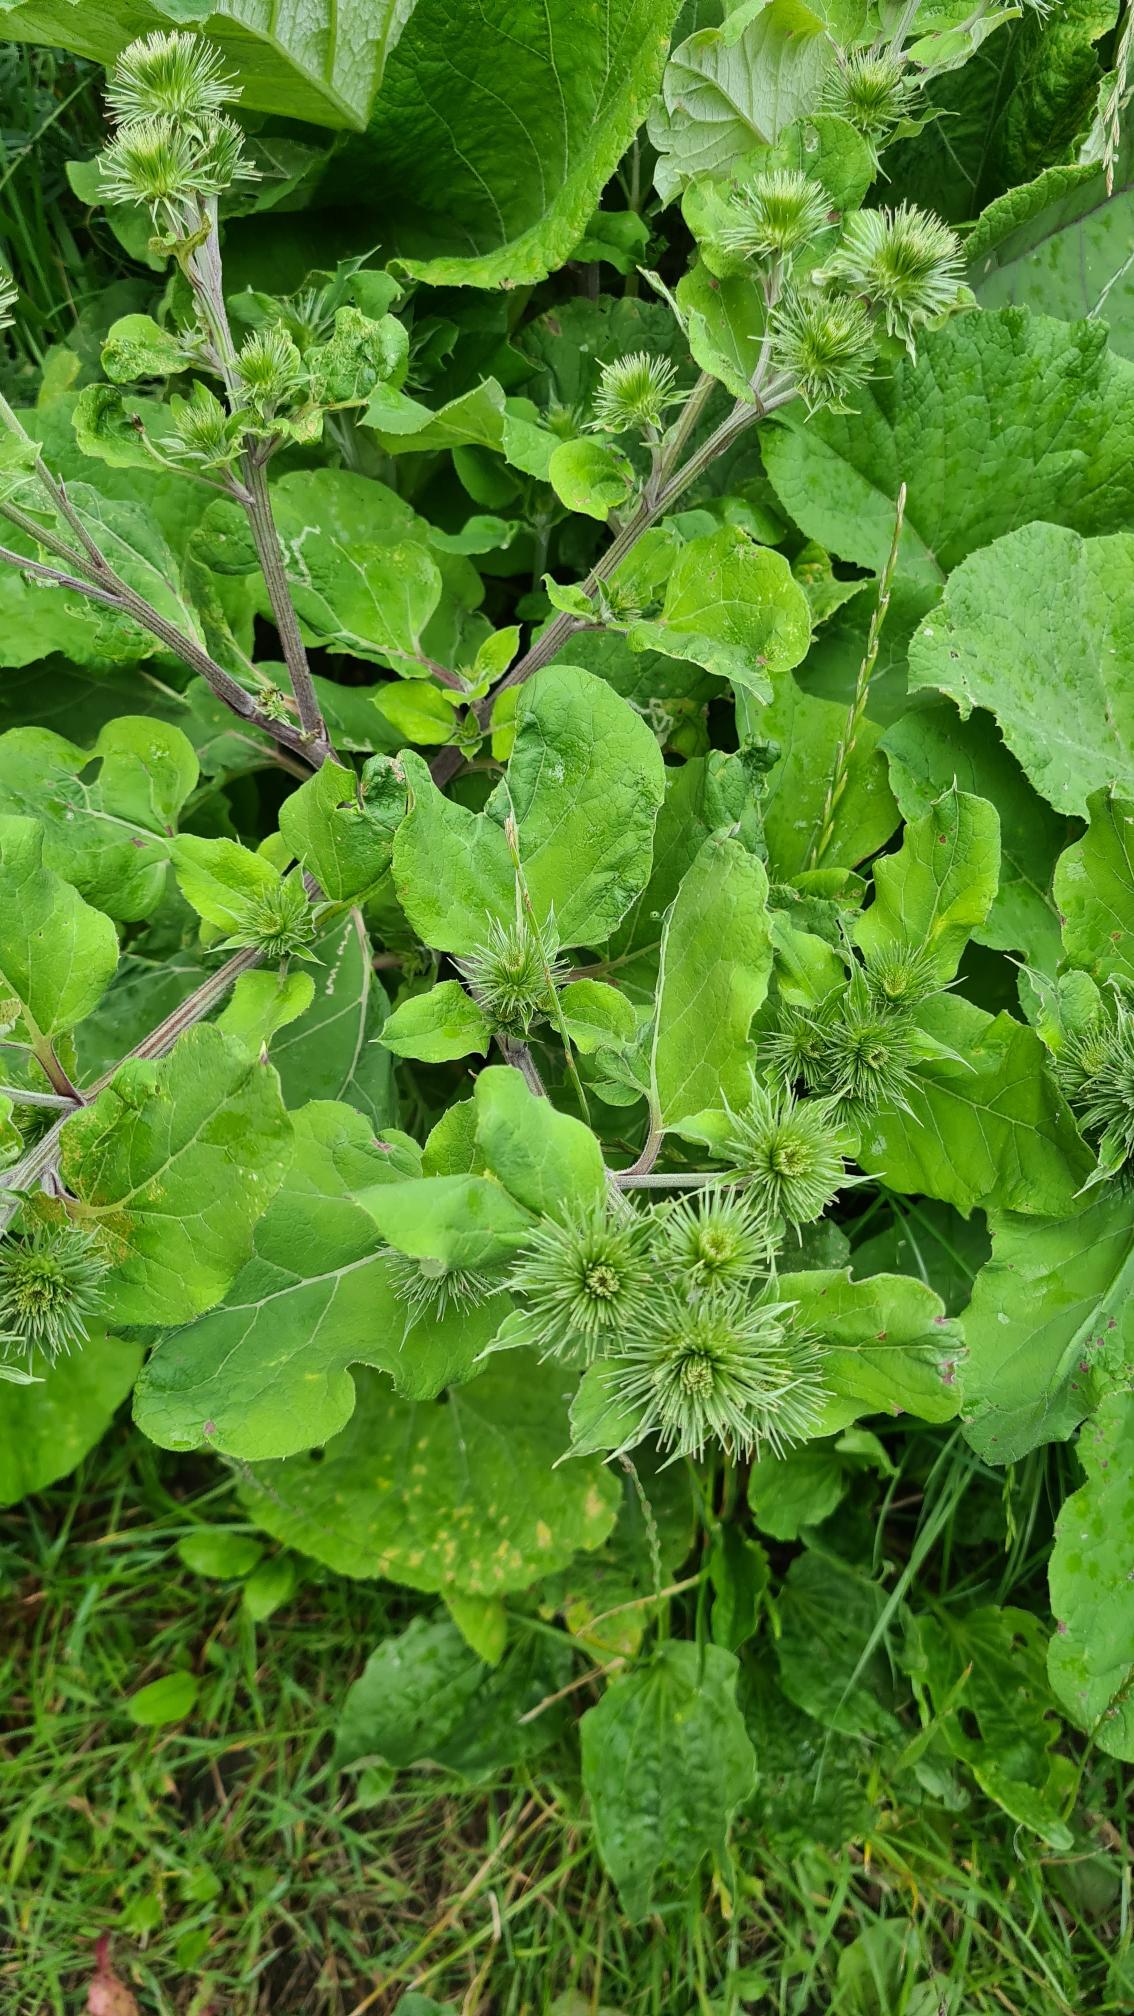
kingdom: Plantae
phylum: Tracheophyta
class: Magnoliopsida
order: Asterales
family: Asteraceae
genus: Arctium
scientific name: Arctium lappa
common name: Glat burre
